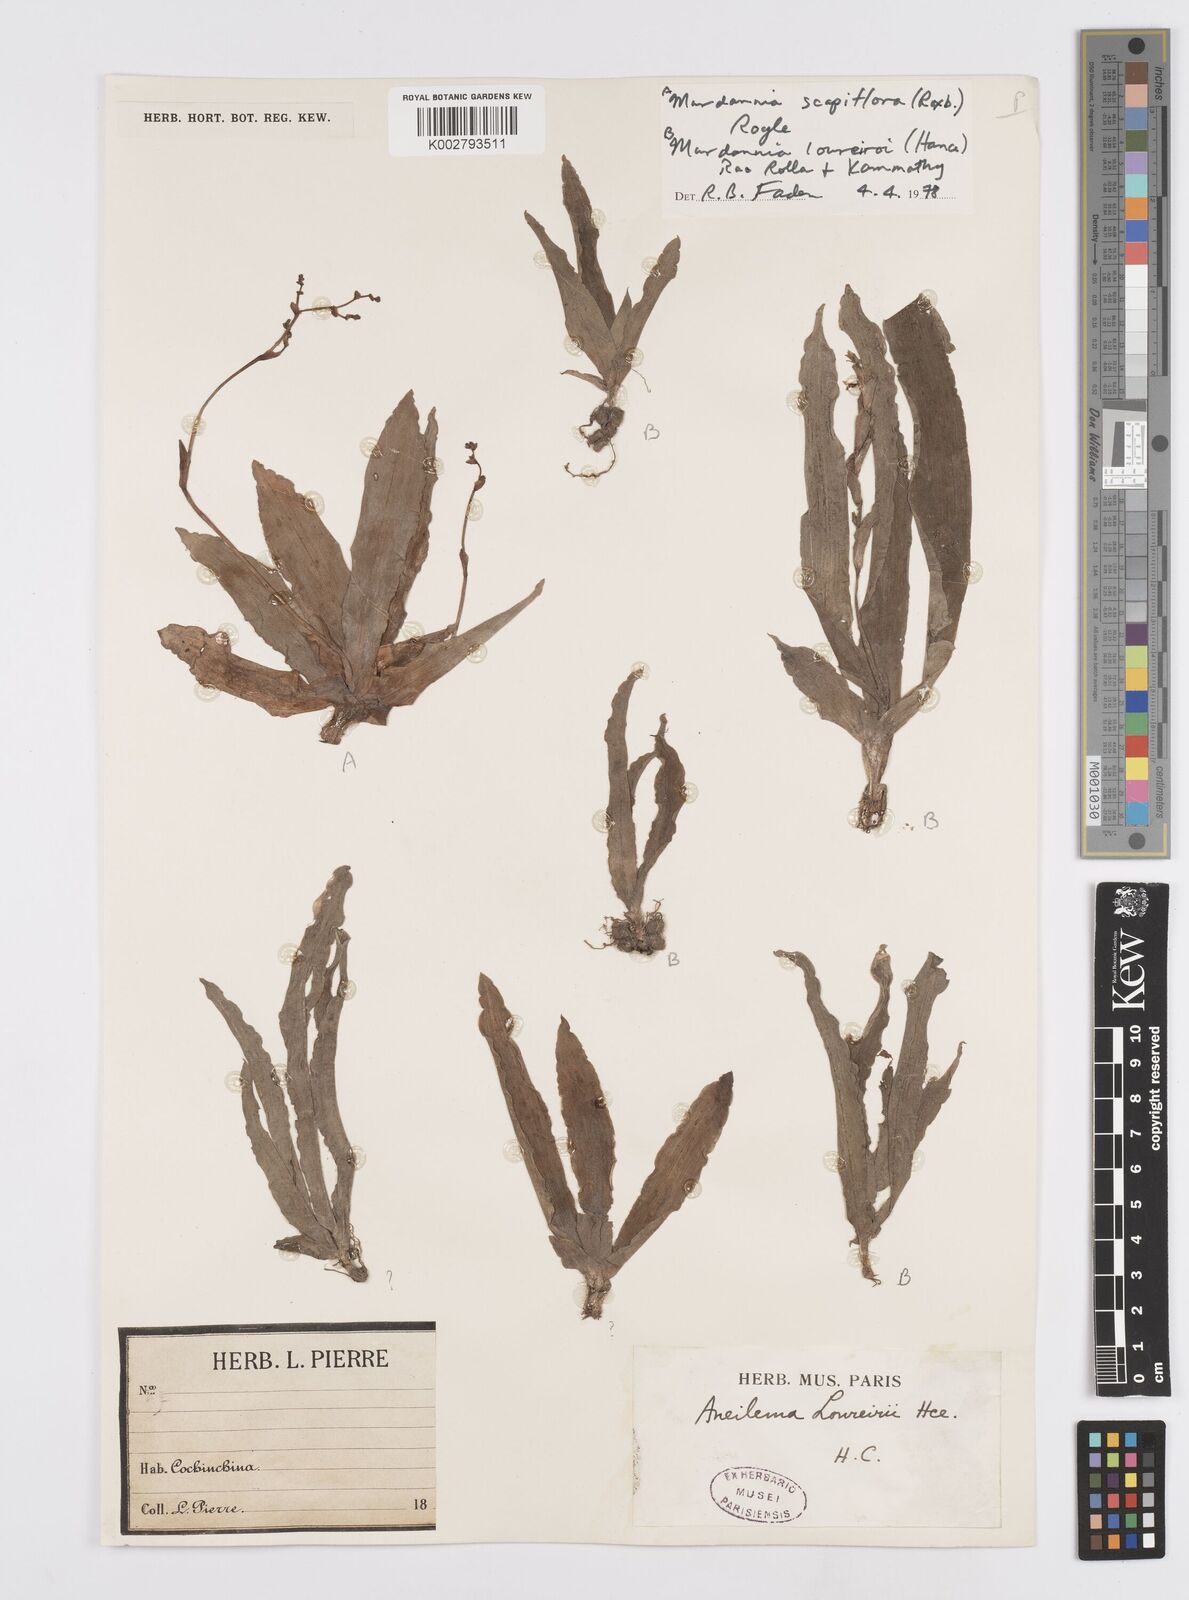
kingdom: Plantae
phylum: Tracheophyta
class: Liliopsida
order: Commelinales
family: Commelinaceae
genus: Murdannia
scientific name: Murdannia edulis
